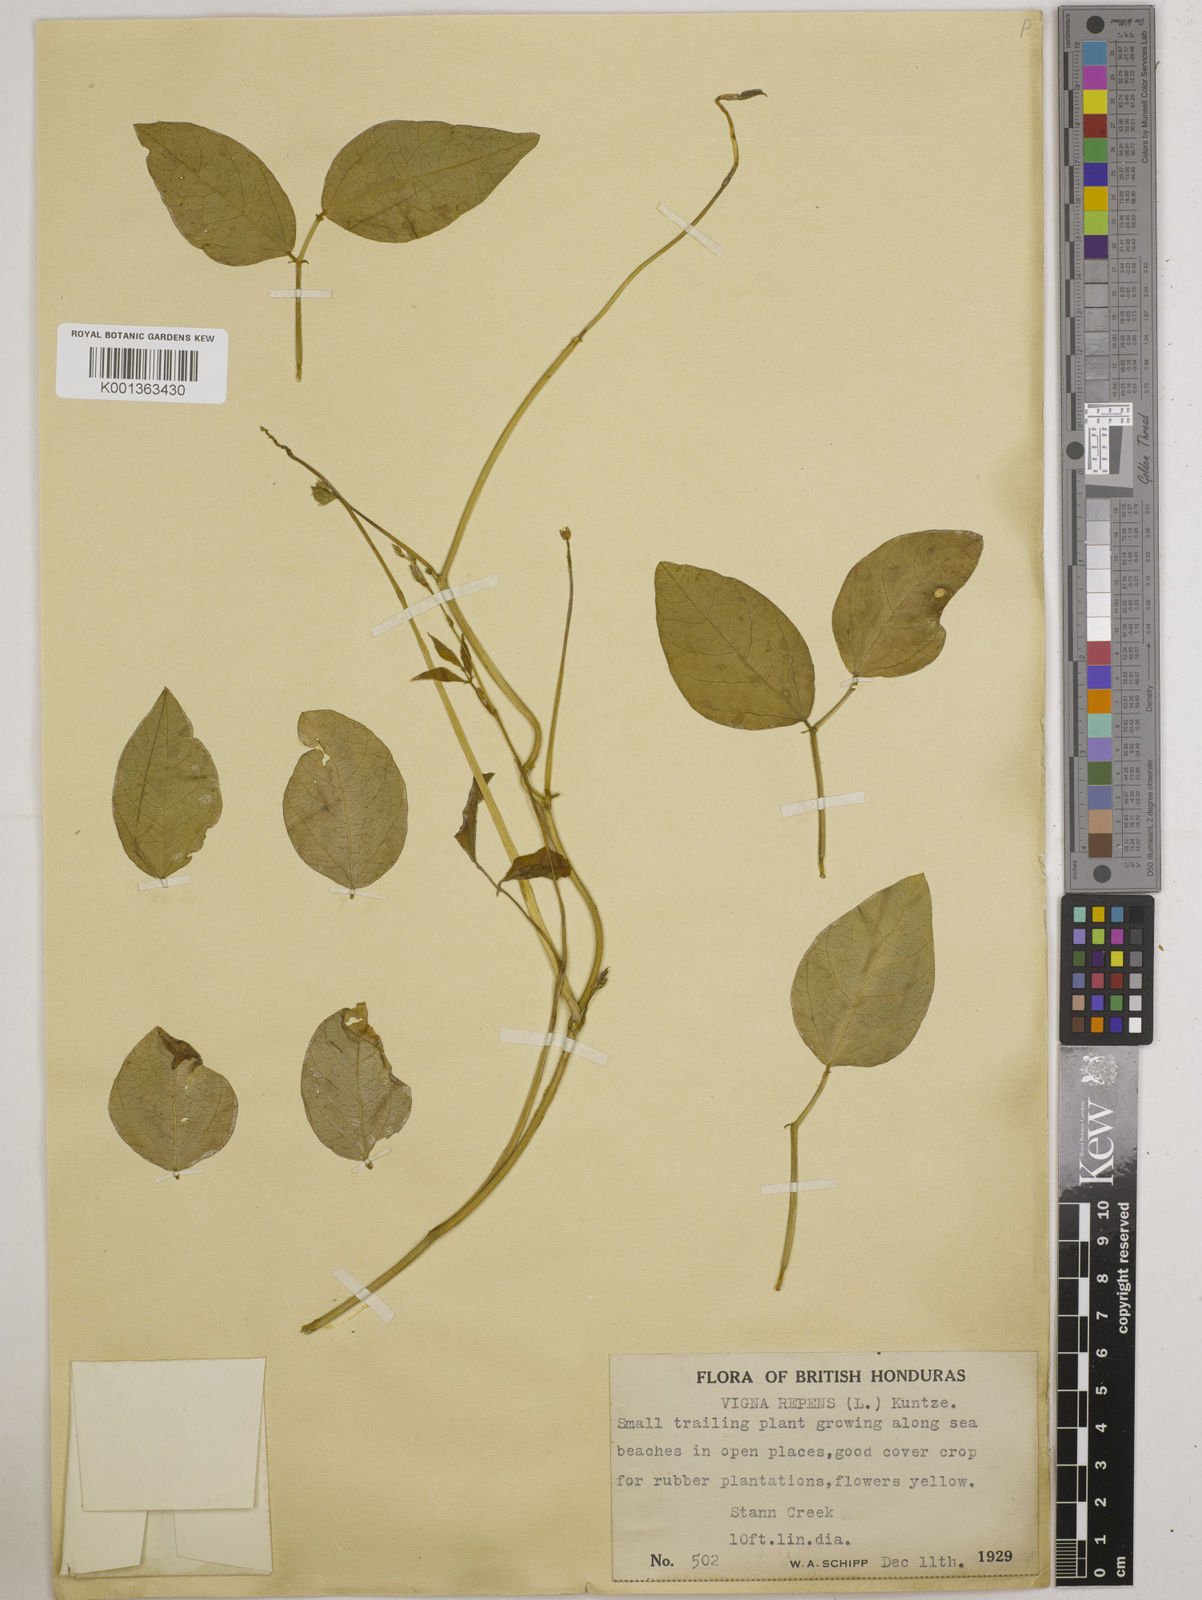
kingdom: Plantae
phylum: Tracheophyta
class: Magnoliopsida
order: Fabales
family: Fabaceae
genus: Vigna
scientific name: Vigna luteola
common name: Hairypod cowpea
